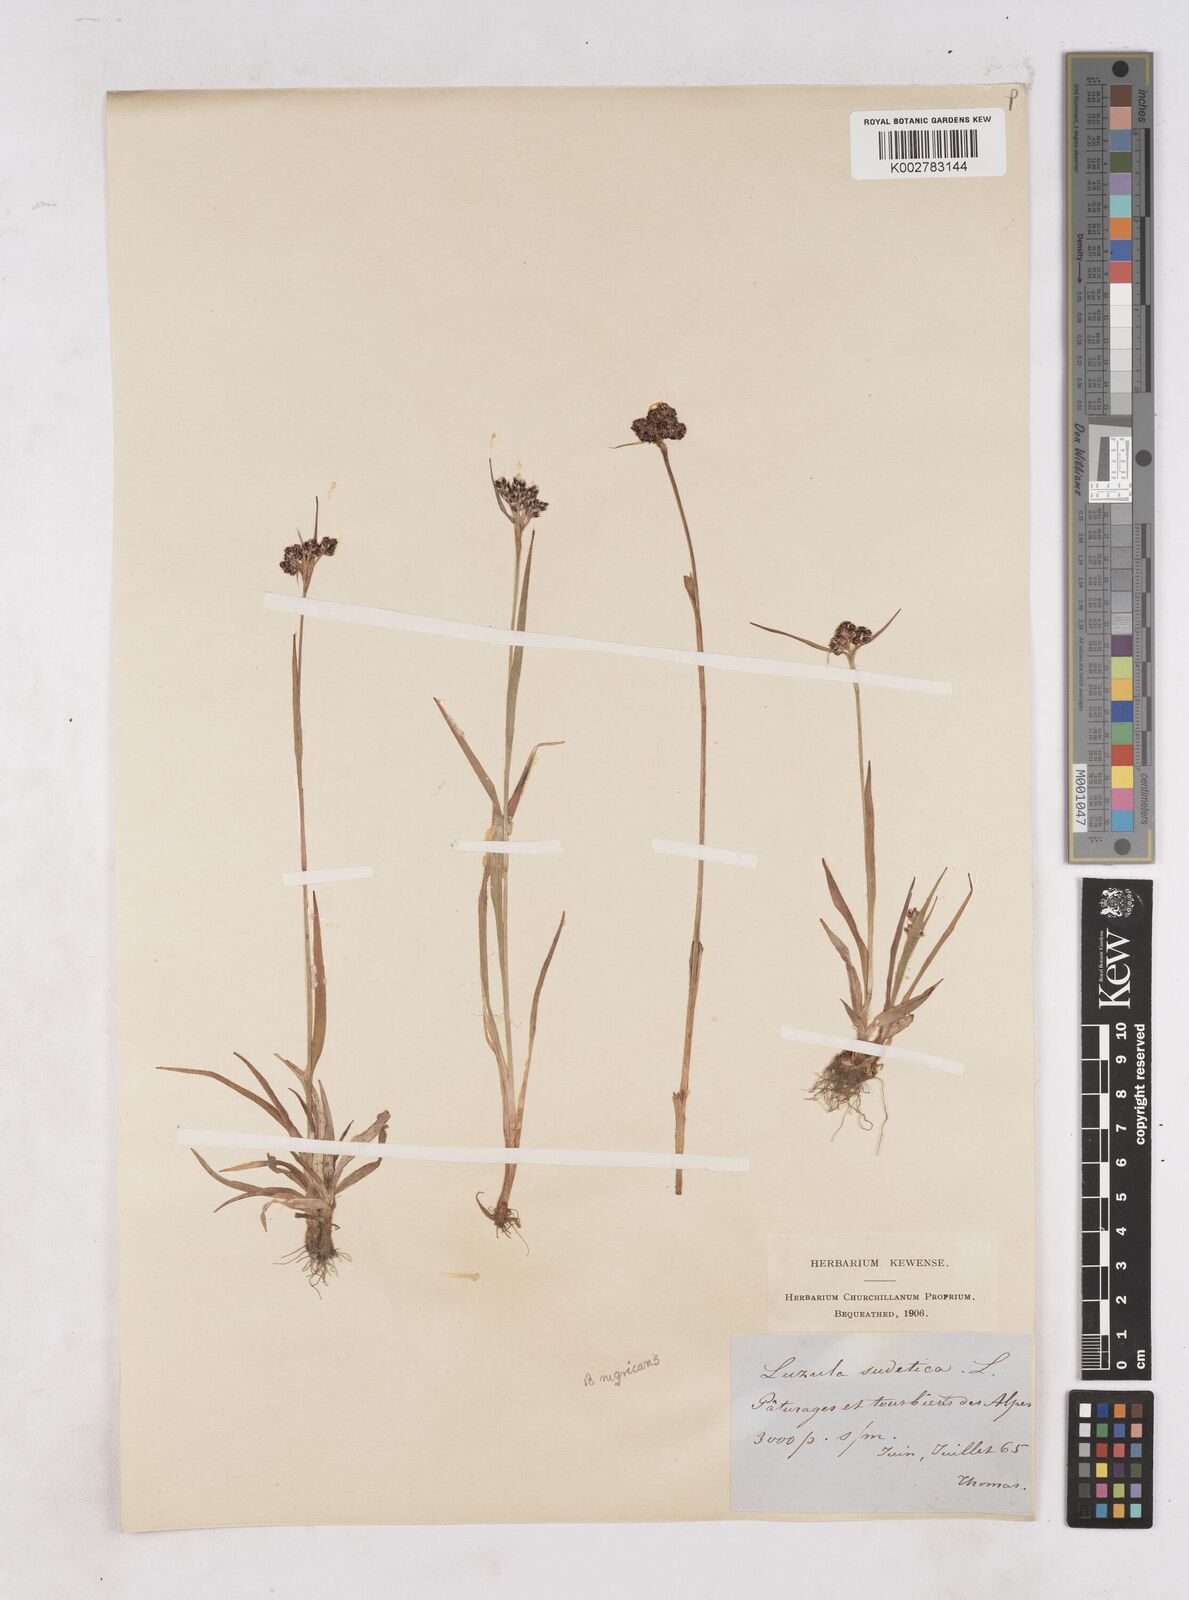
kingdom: Plantae
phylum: Tracheophyta
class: Liliopsida
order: Poales
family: Juncaceae
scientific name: Juncaceae
